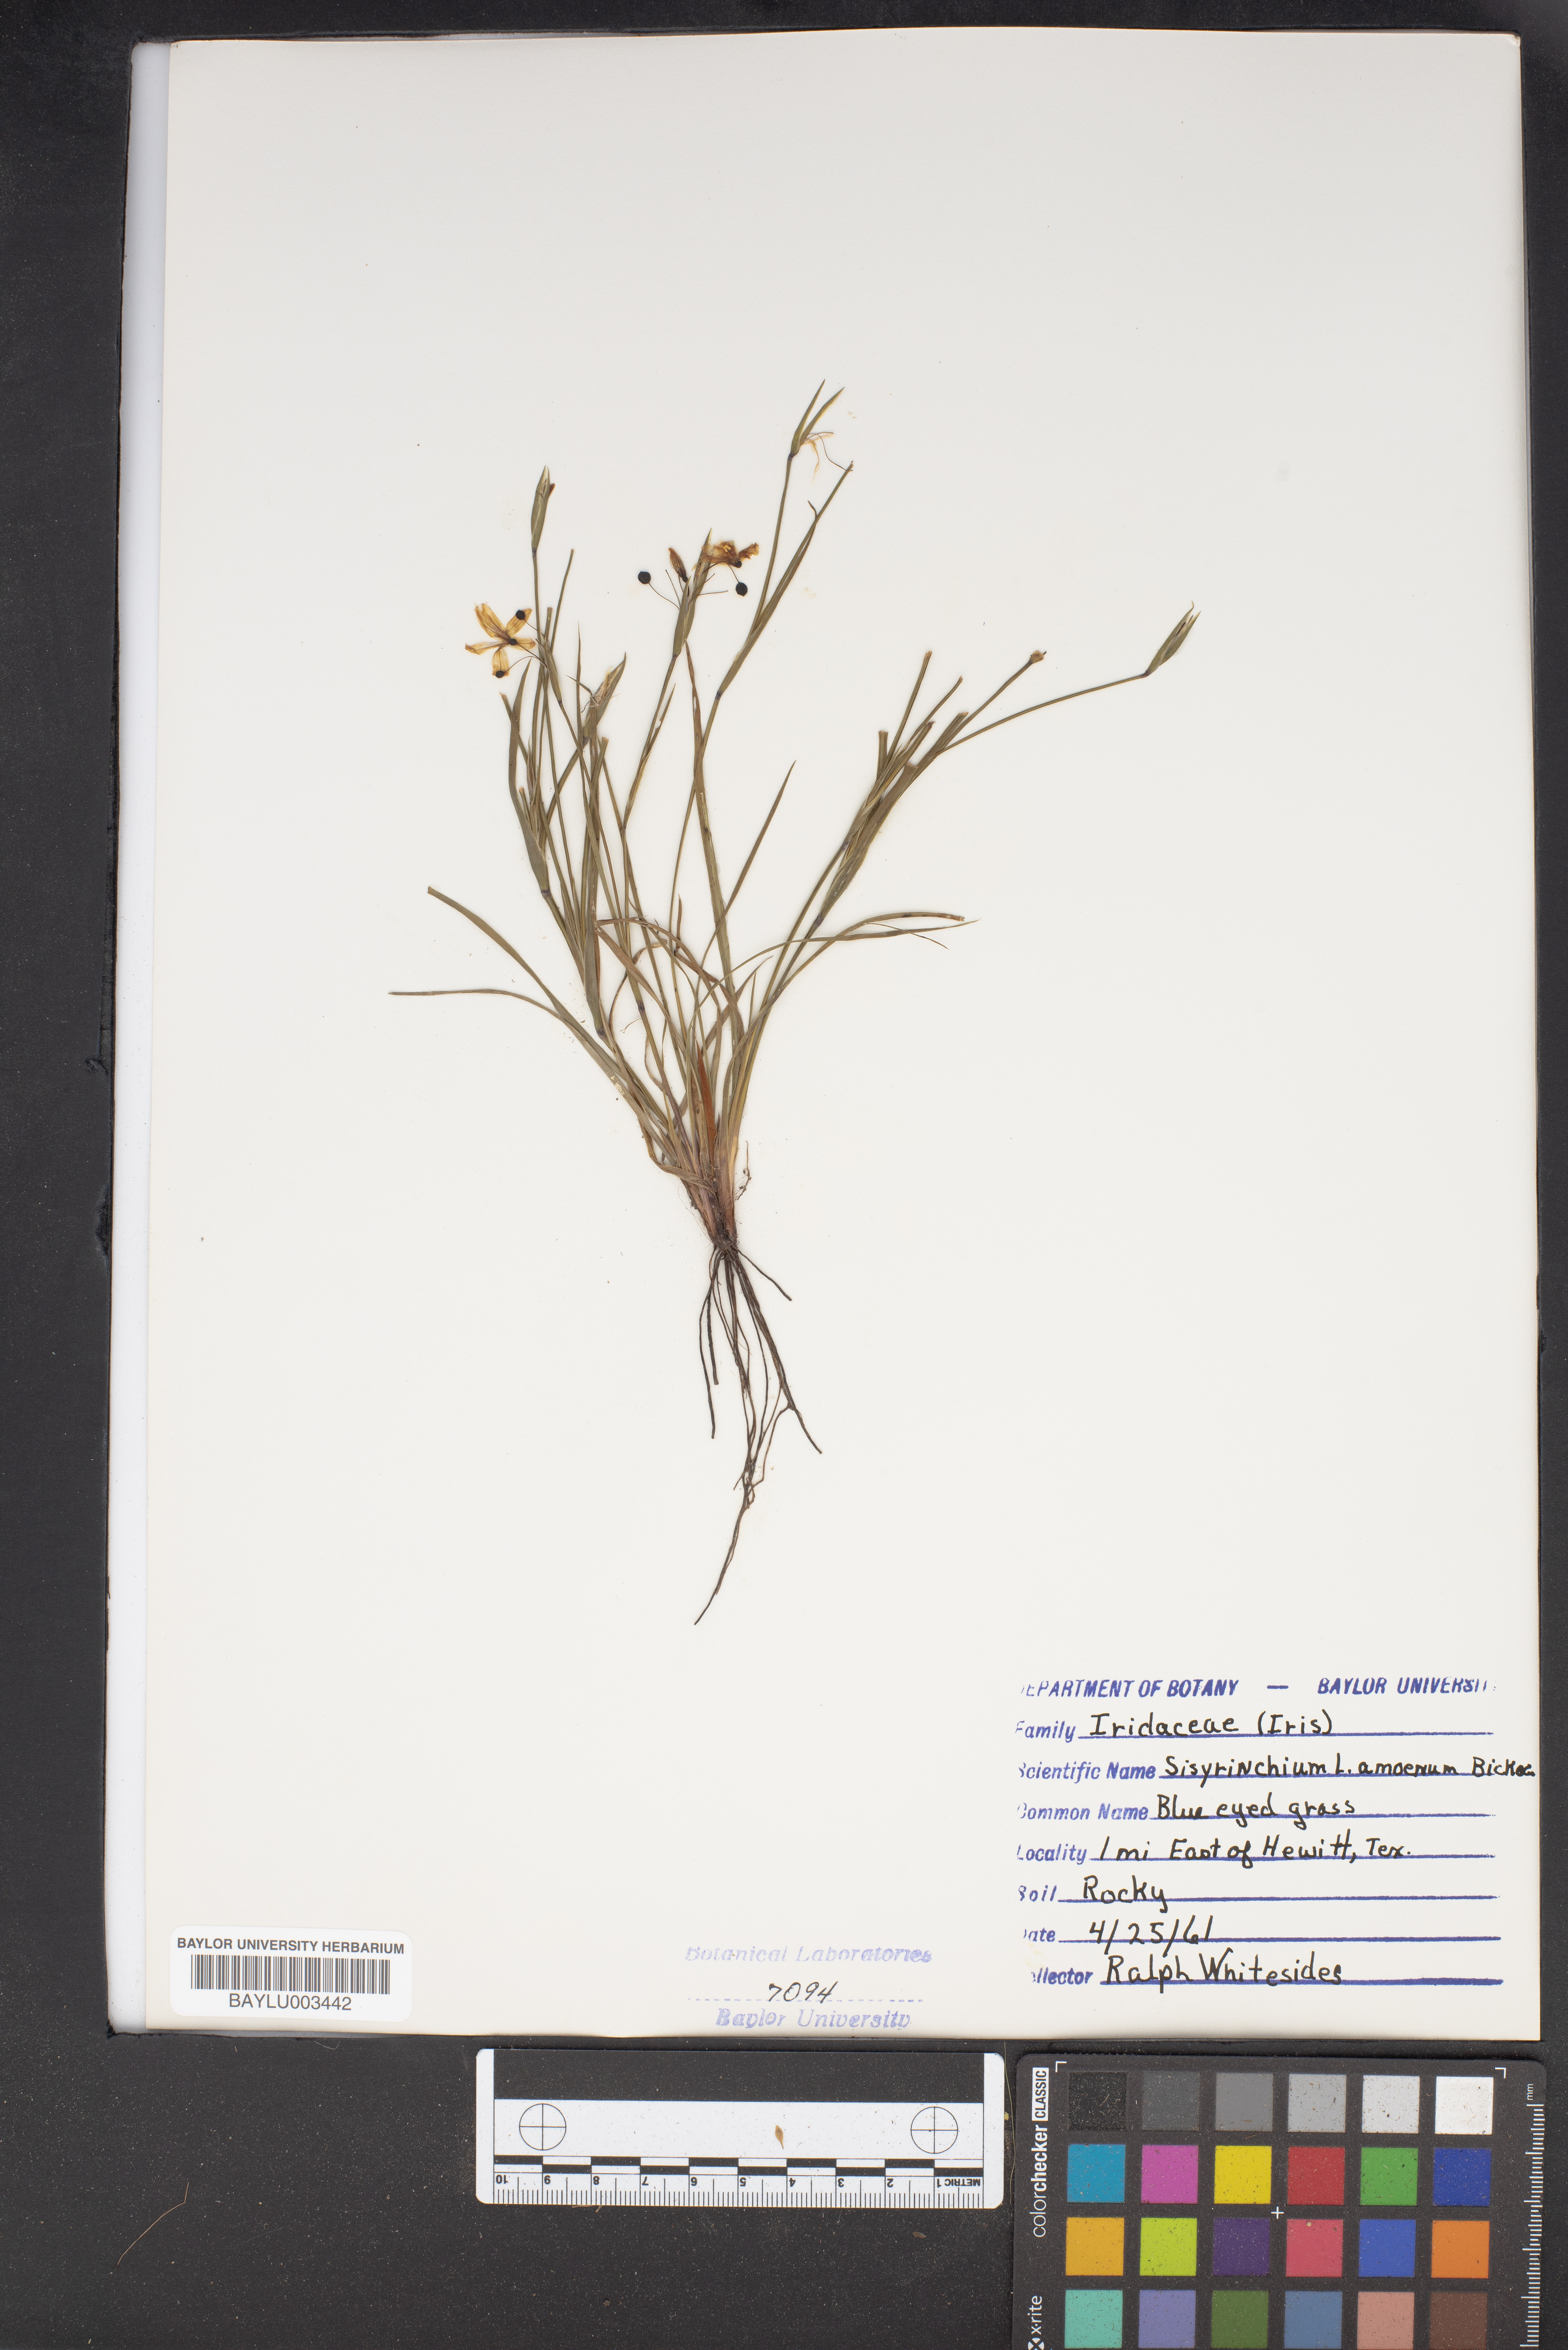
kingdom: Plantae
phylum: Tracheophyta
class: Liliopsida
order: Asparagales
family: Iridaceae
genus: Sisyrinchium
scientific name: Sisyrinchium ensigerum
